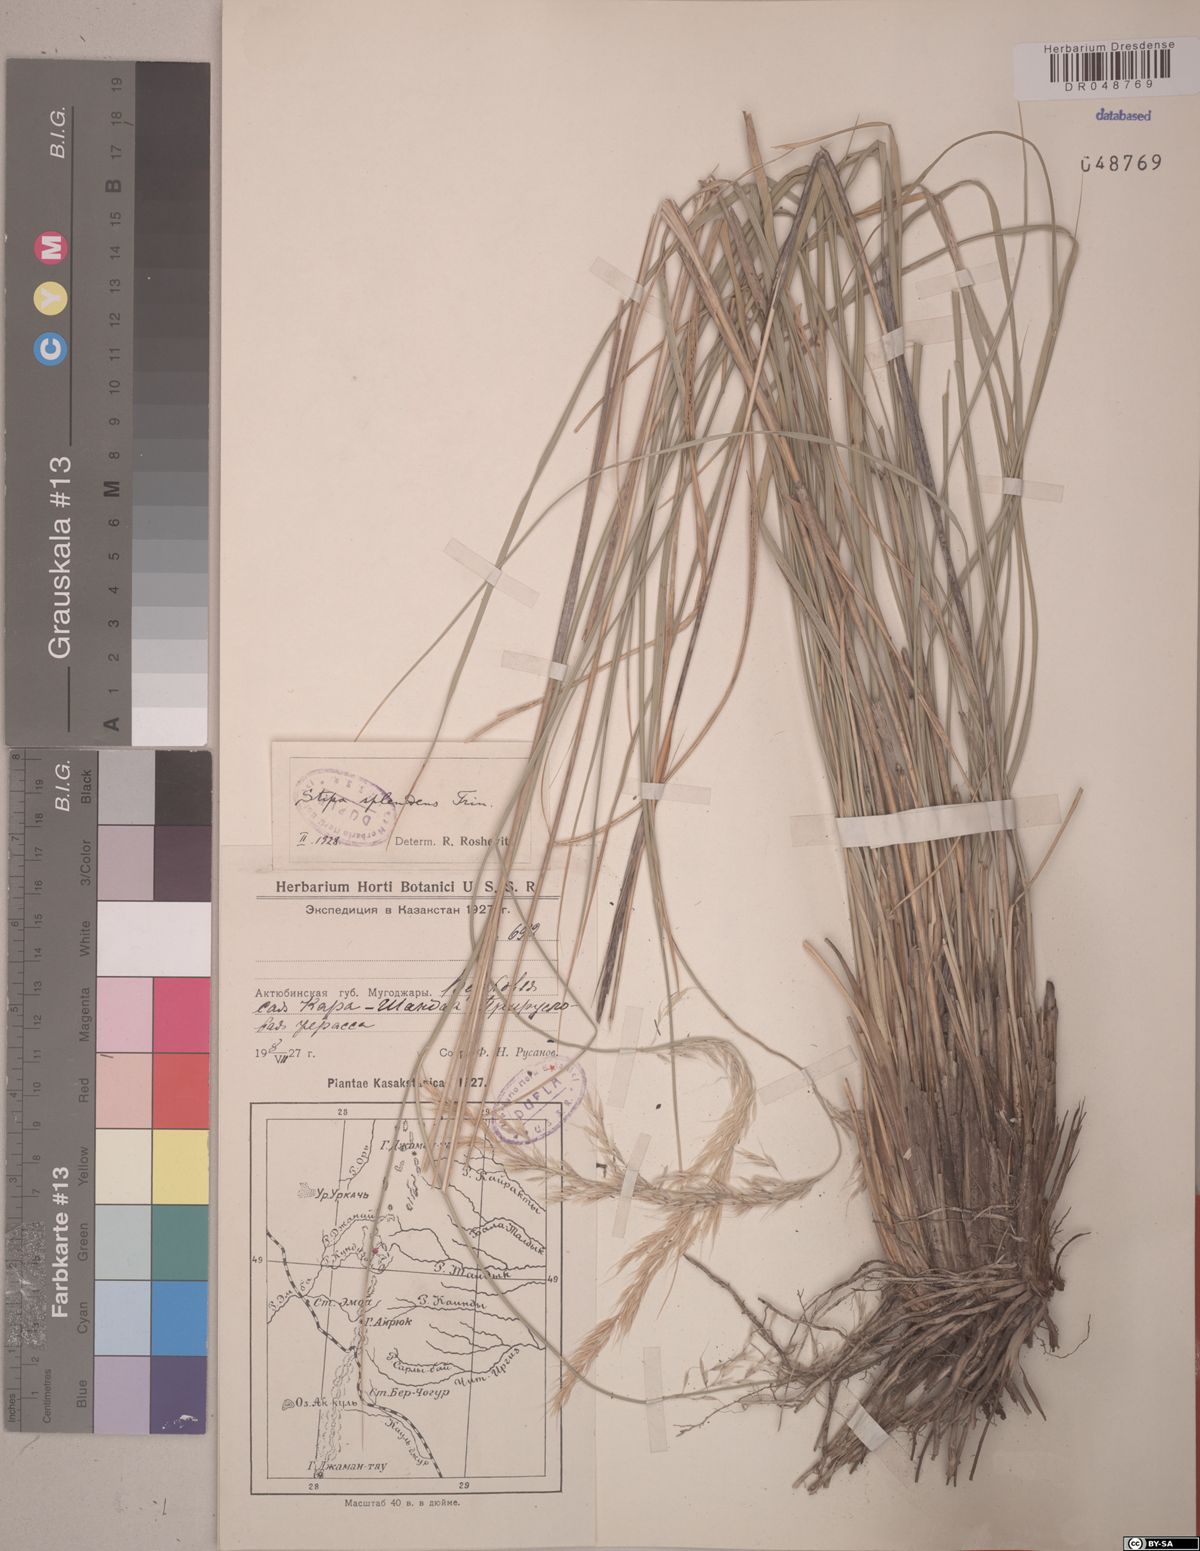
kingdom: Plantae
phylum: Tracheophyta
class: Liliopsida
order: Poales
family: Poaceae
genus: Neotrinia
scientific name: Neotrinia splendens
